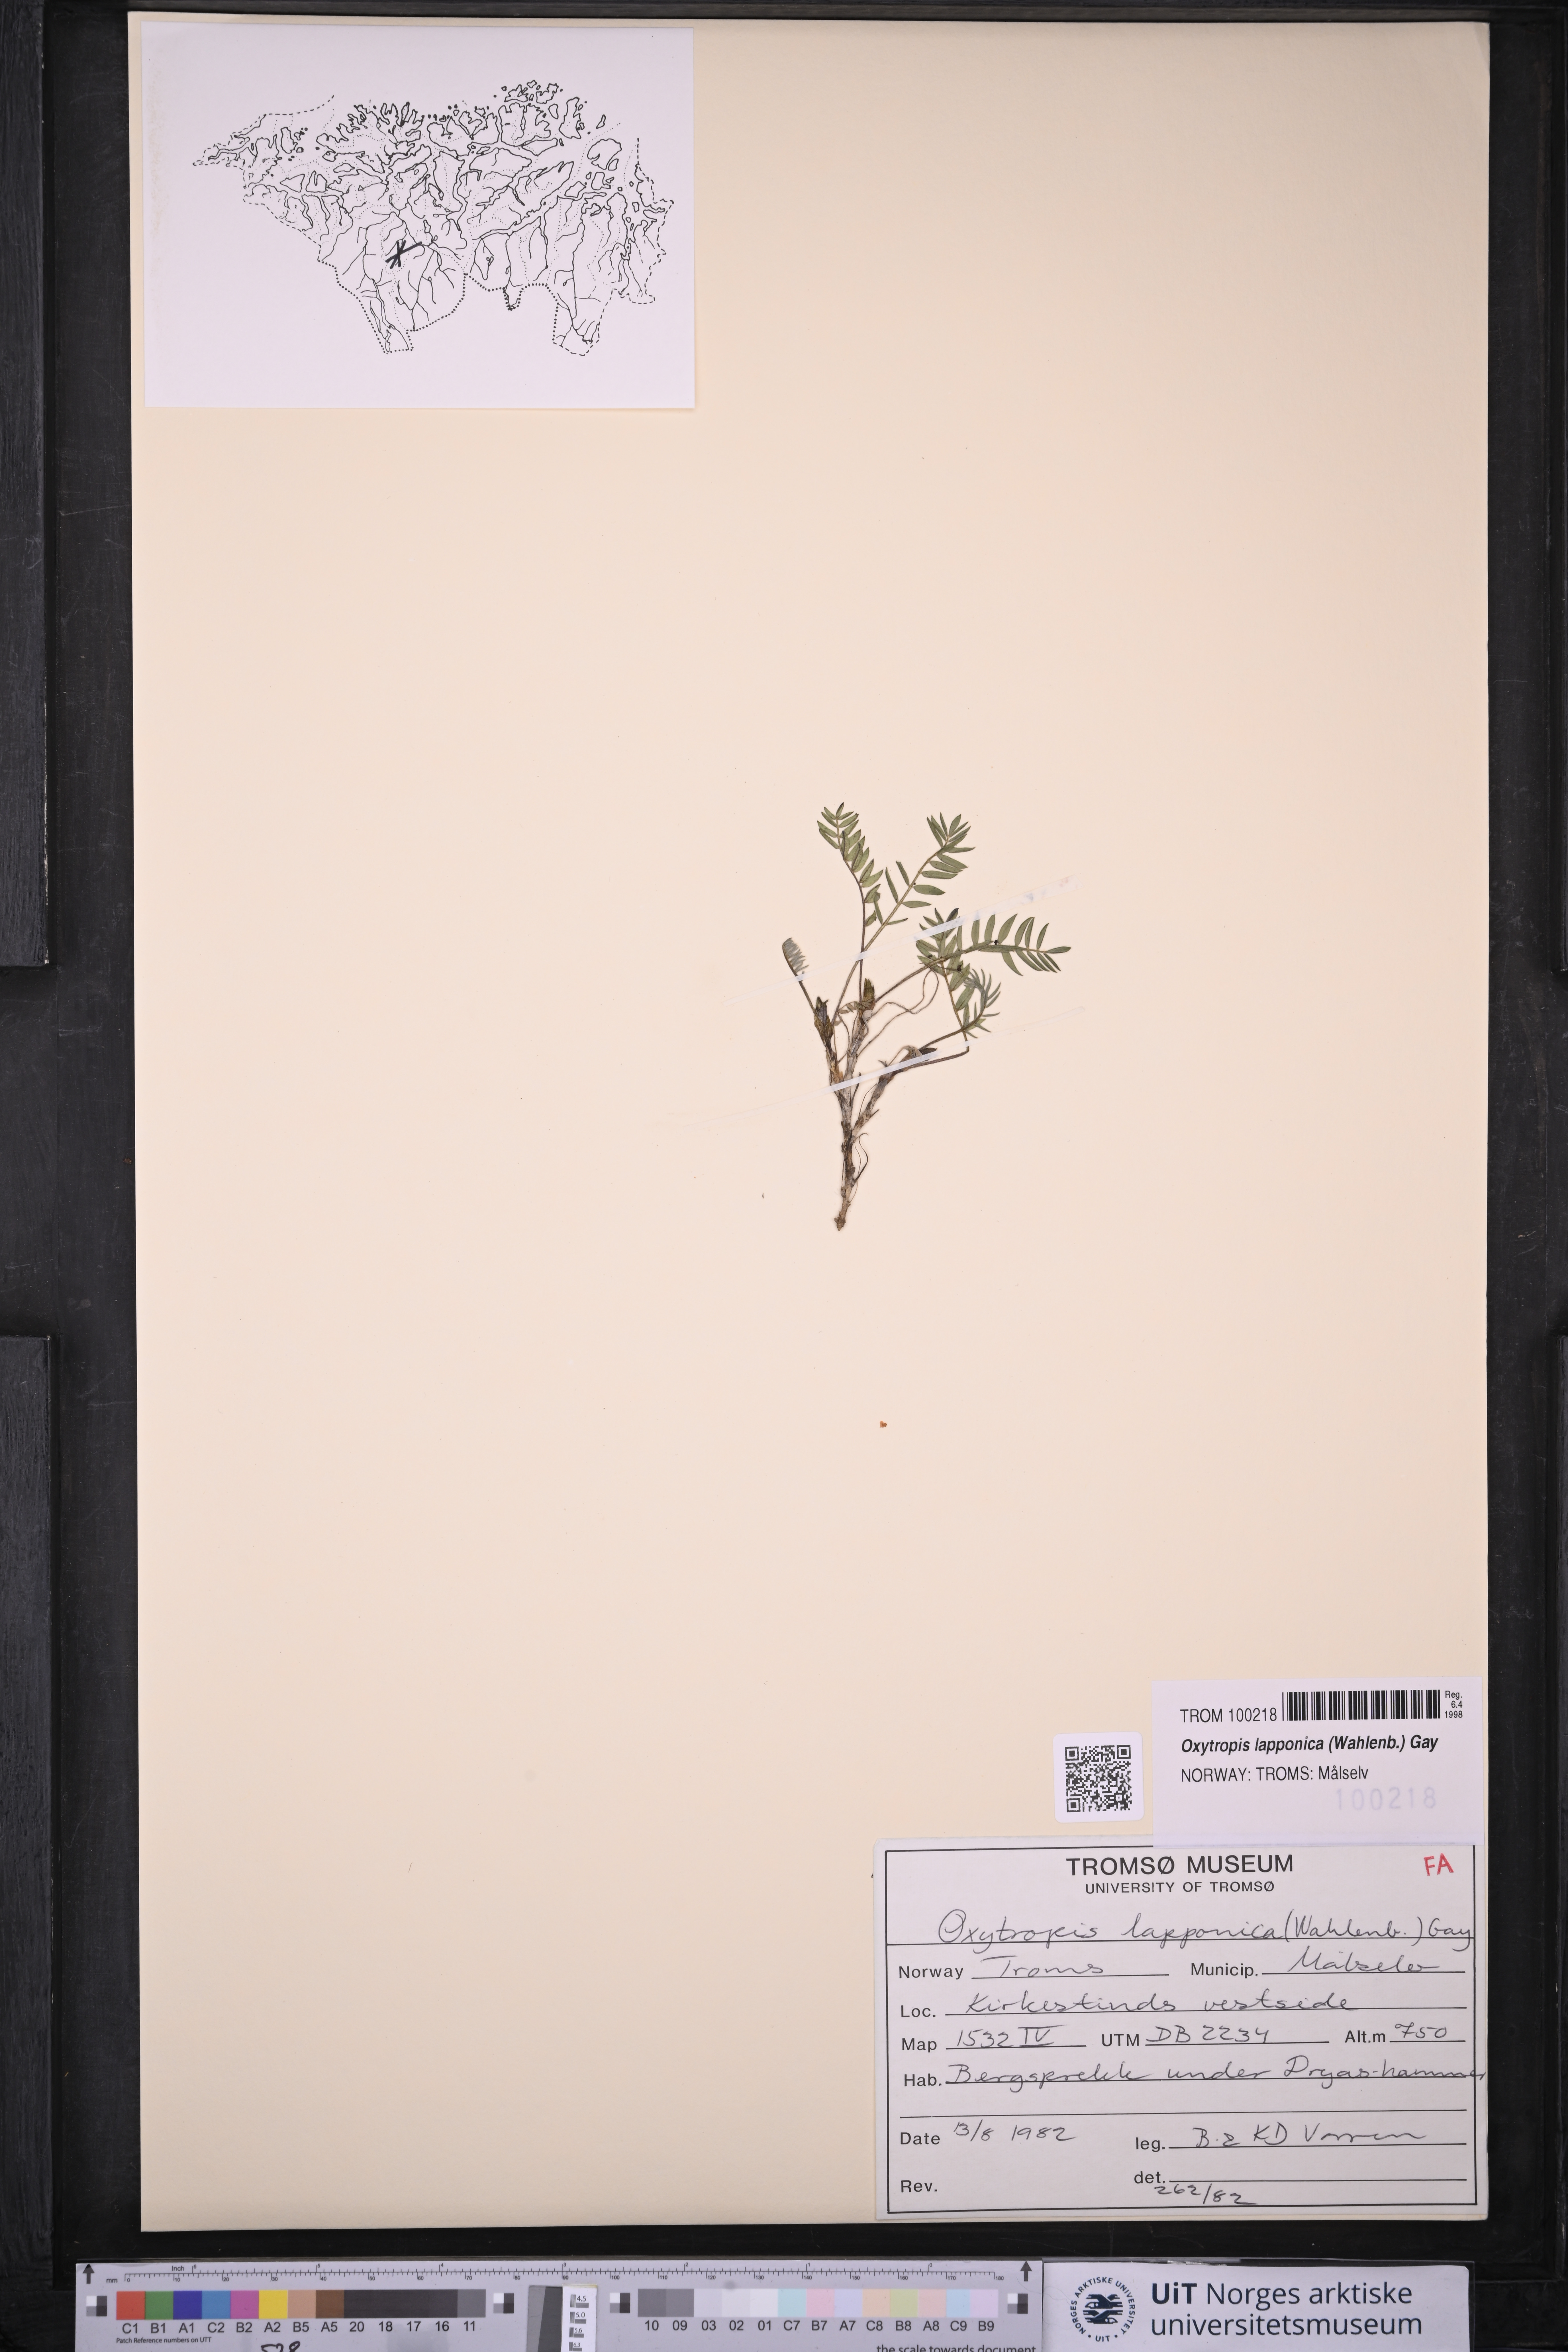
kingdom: Plantae
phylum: Tracheophyta
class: Magnoliopsida
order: Fabales
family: Fabaceae
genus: Oxytropis
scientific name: Oxytropis lapponica
